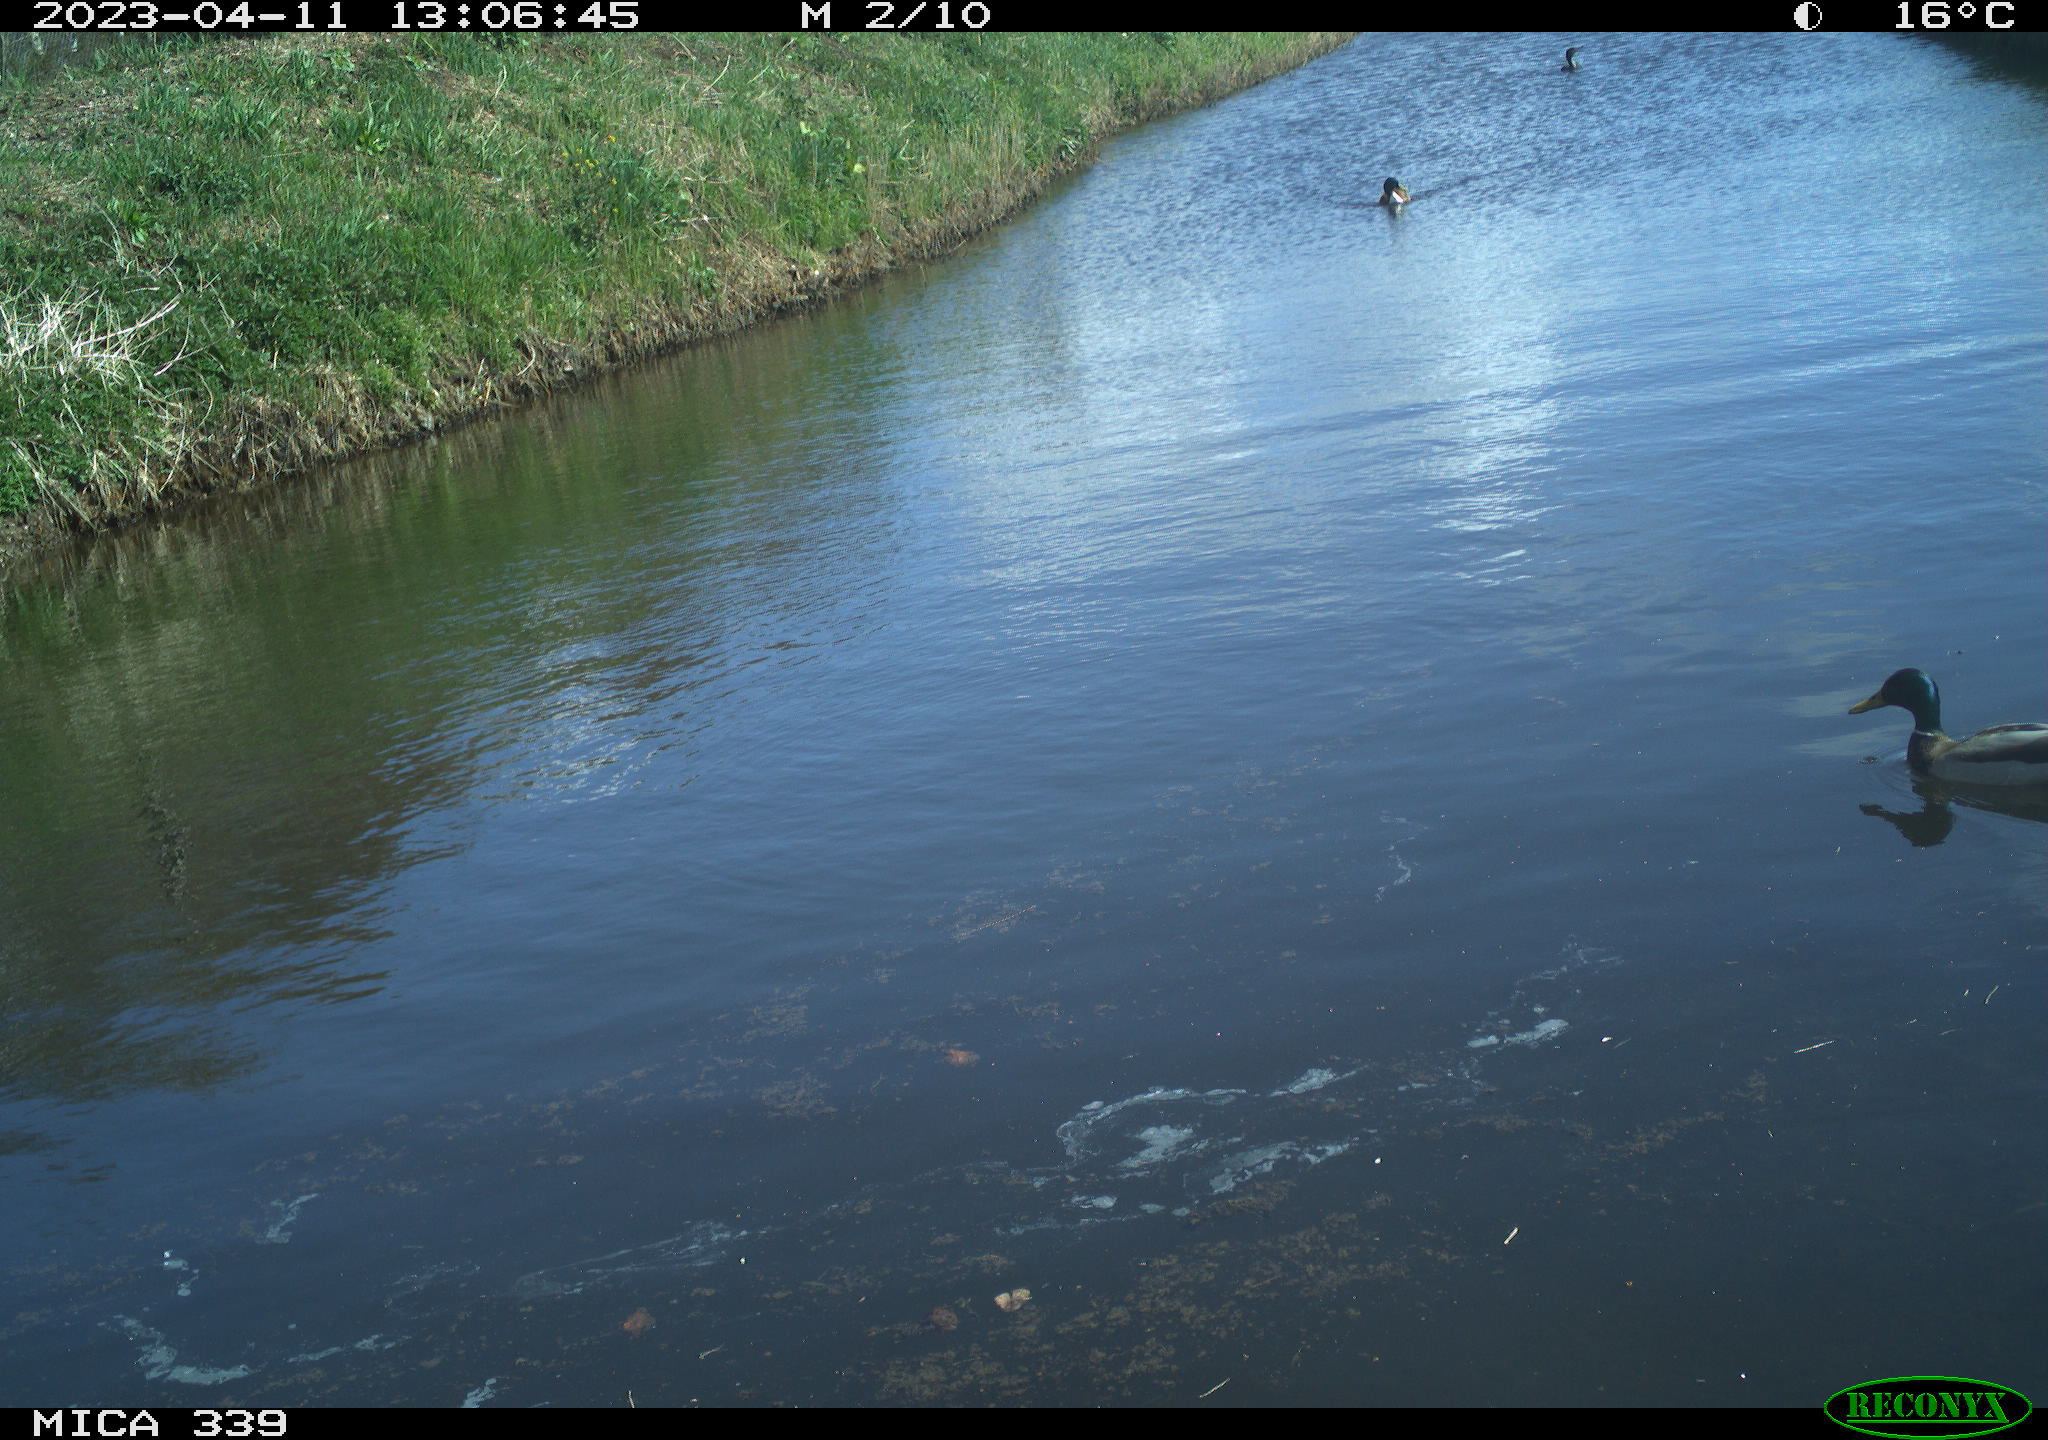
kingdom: Animalia
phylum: Chordata
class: Aves
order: Suliformes
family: Phalacrocoracidae
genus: Phalacrocorax
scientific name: Phalacrocorax carbo
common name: Great cormorant
